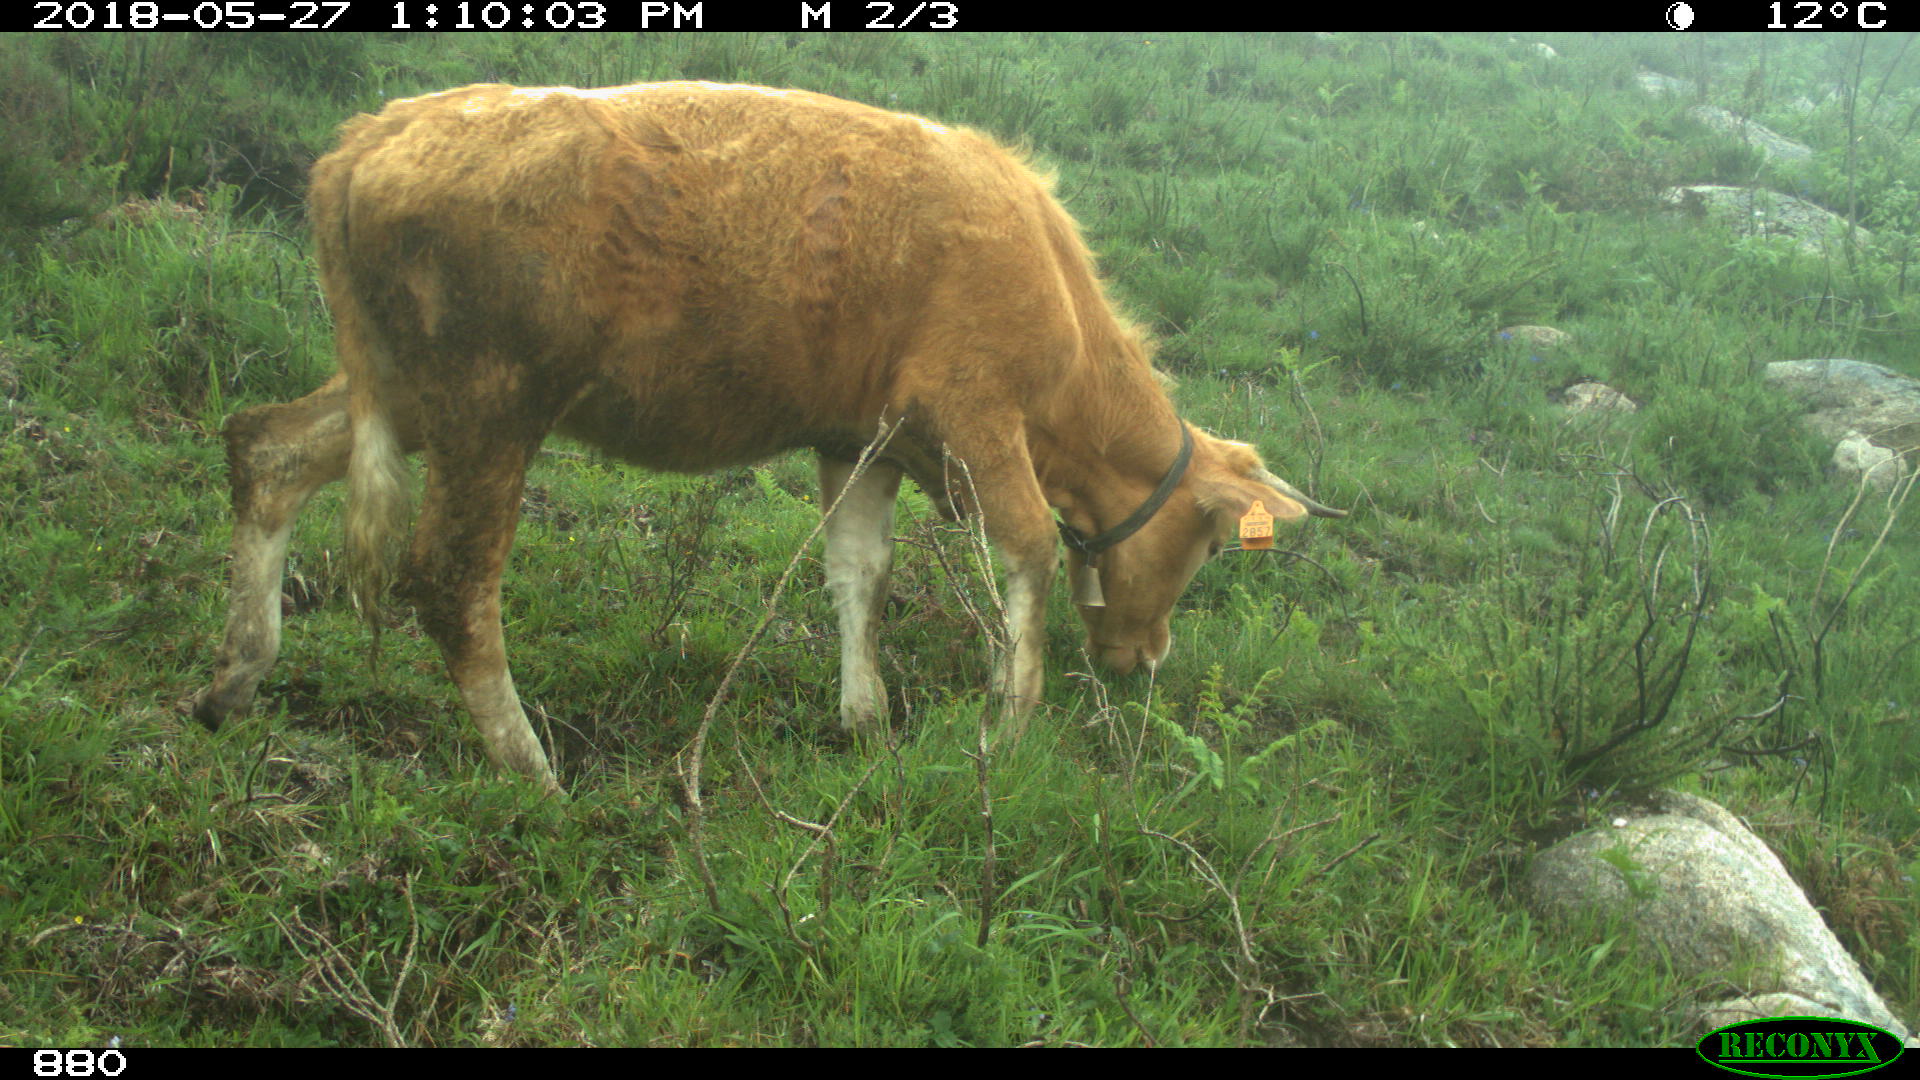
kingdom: Animalia
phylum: Chordata
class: Mammalia
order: Artiodactyla
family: Bovidae
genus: Bos
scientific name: Bos taurus
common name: Domesticated cattle
